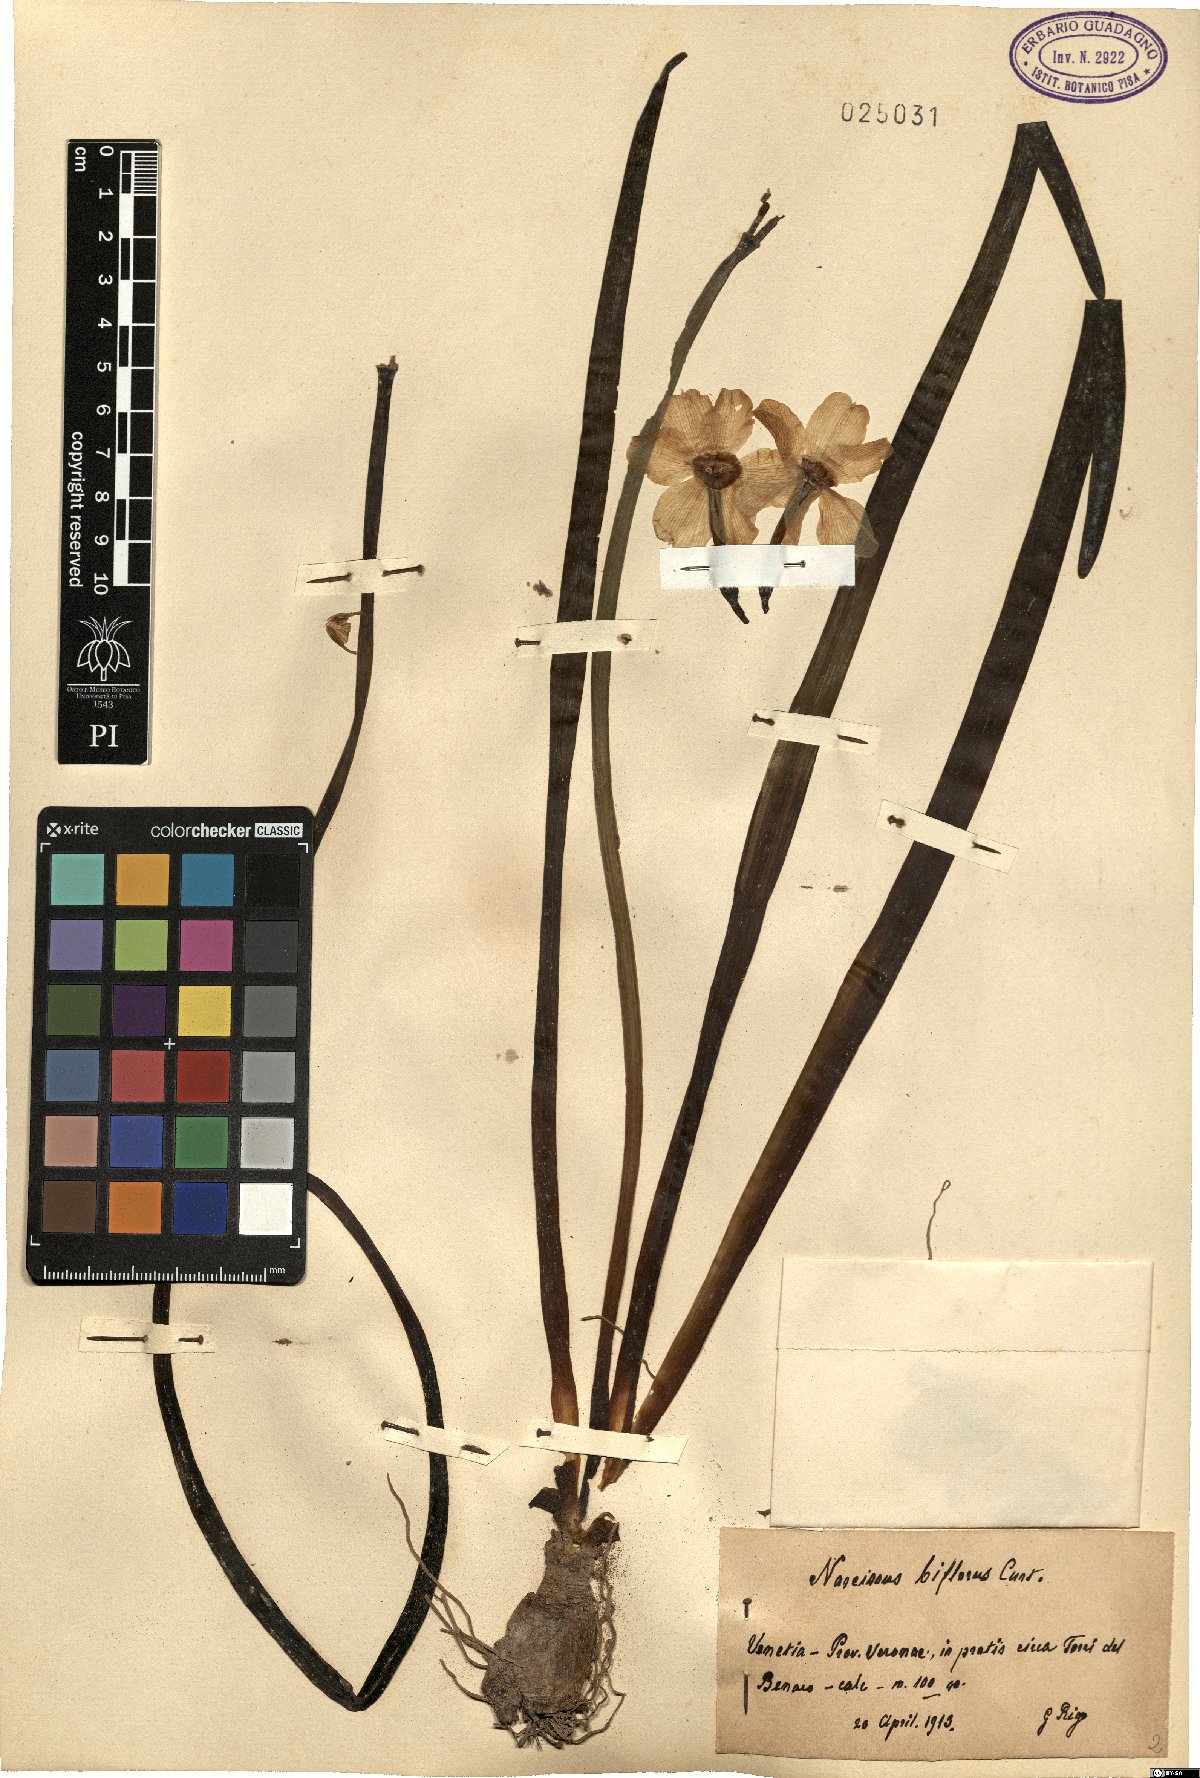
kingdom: Plantae
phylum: Tracheophyta
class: Liliopsida
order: Asparagales
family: Amaryllidaceae
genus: Narcissus
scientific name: Narcissus medioluteus
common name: Primrose-peerless
